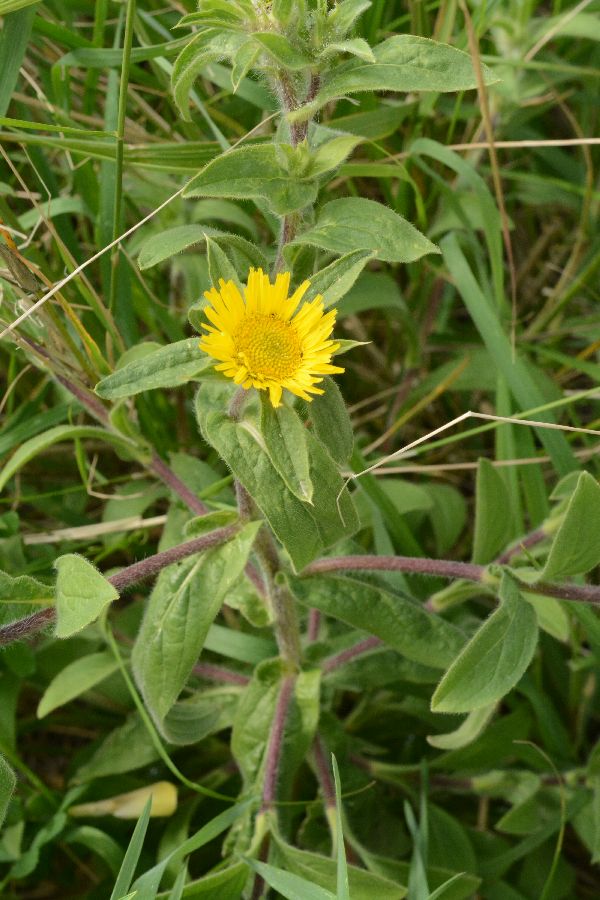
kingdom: Plantae
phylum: Tracheophyta
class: Magnoliopsida
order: Asterales
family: Asteraceae
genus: Pulicaria
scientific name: Pulicaria vulgaris
